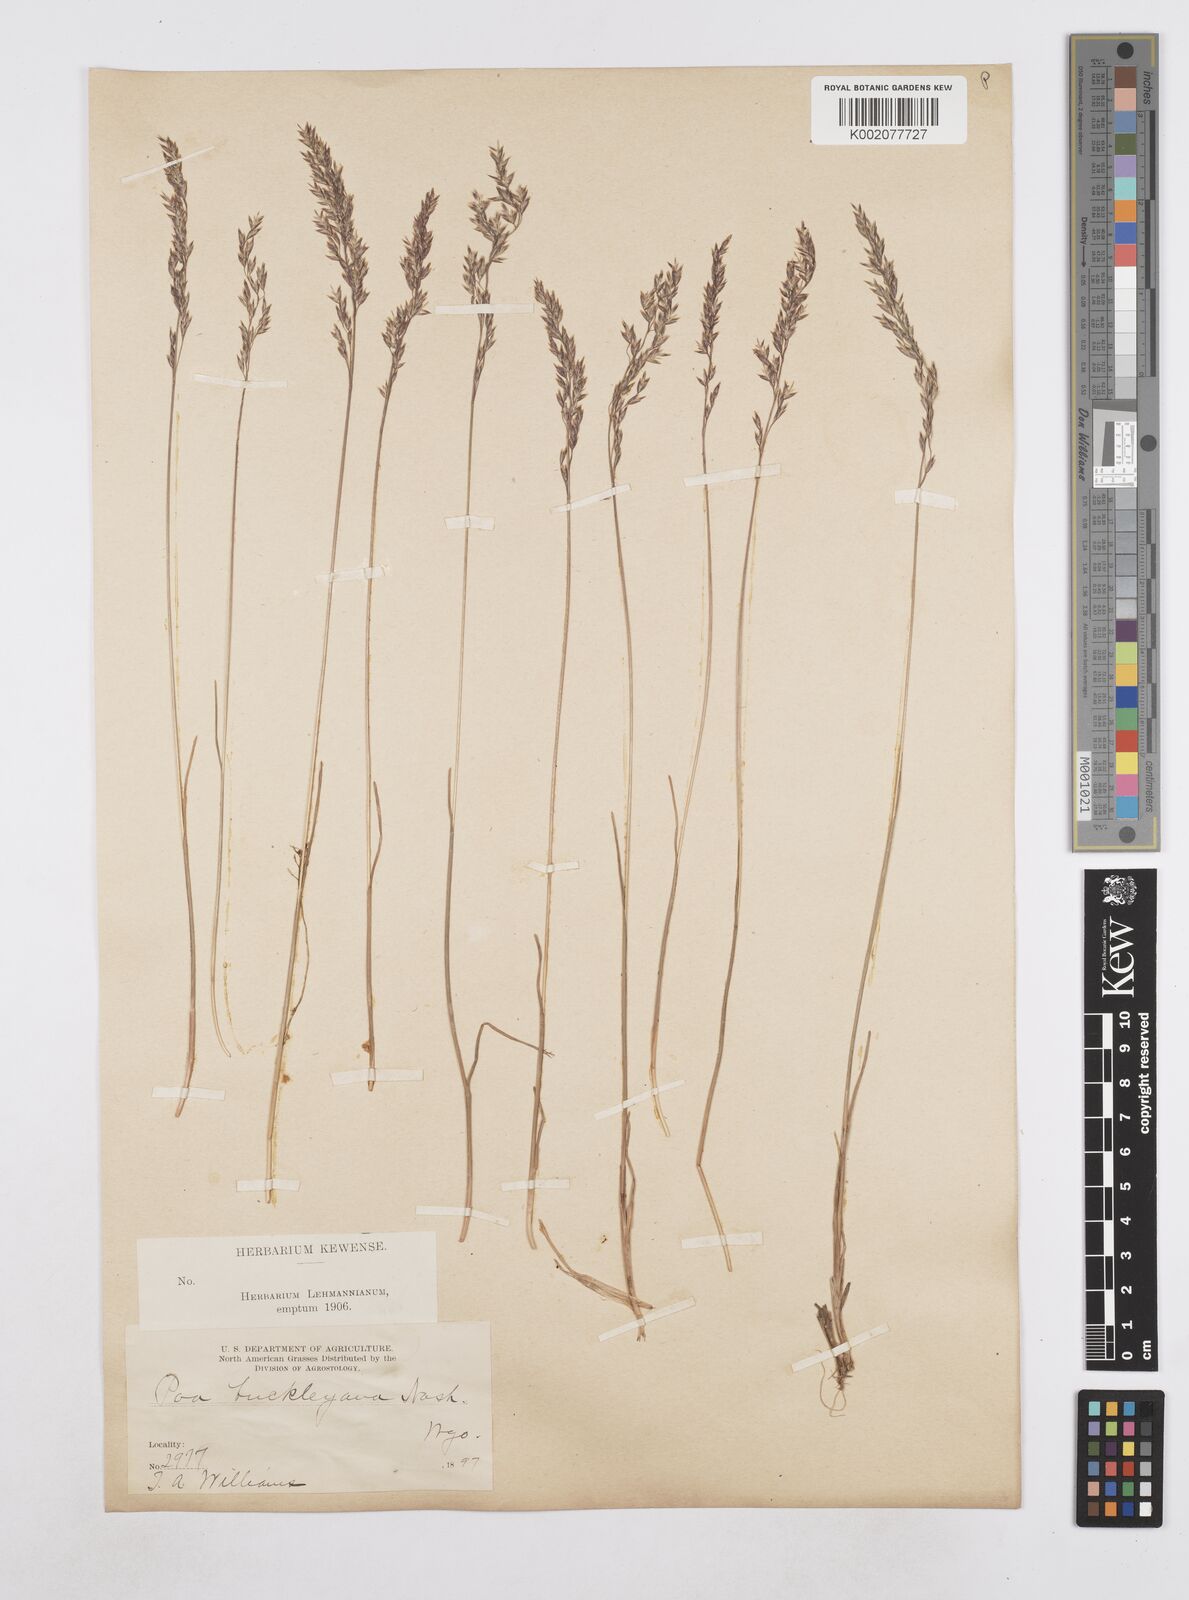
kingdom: Plantae
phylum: Tracheophyta
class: Liliopsida
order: Poales
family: Poaceae
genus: Poa
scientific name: Poa secunda
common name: Sandberg bluegrass
